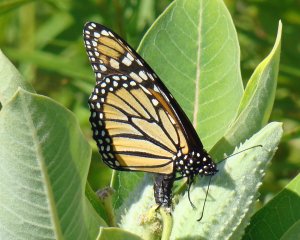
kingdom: Animalia
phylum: Arthropoda
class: Insecta
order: Lepidoptera
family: Nymphalidae
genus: Danaus
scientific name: Danaus plexippus
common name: Monarch
